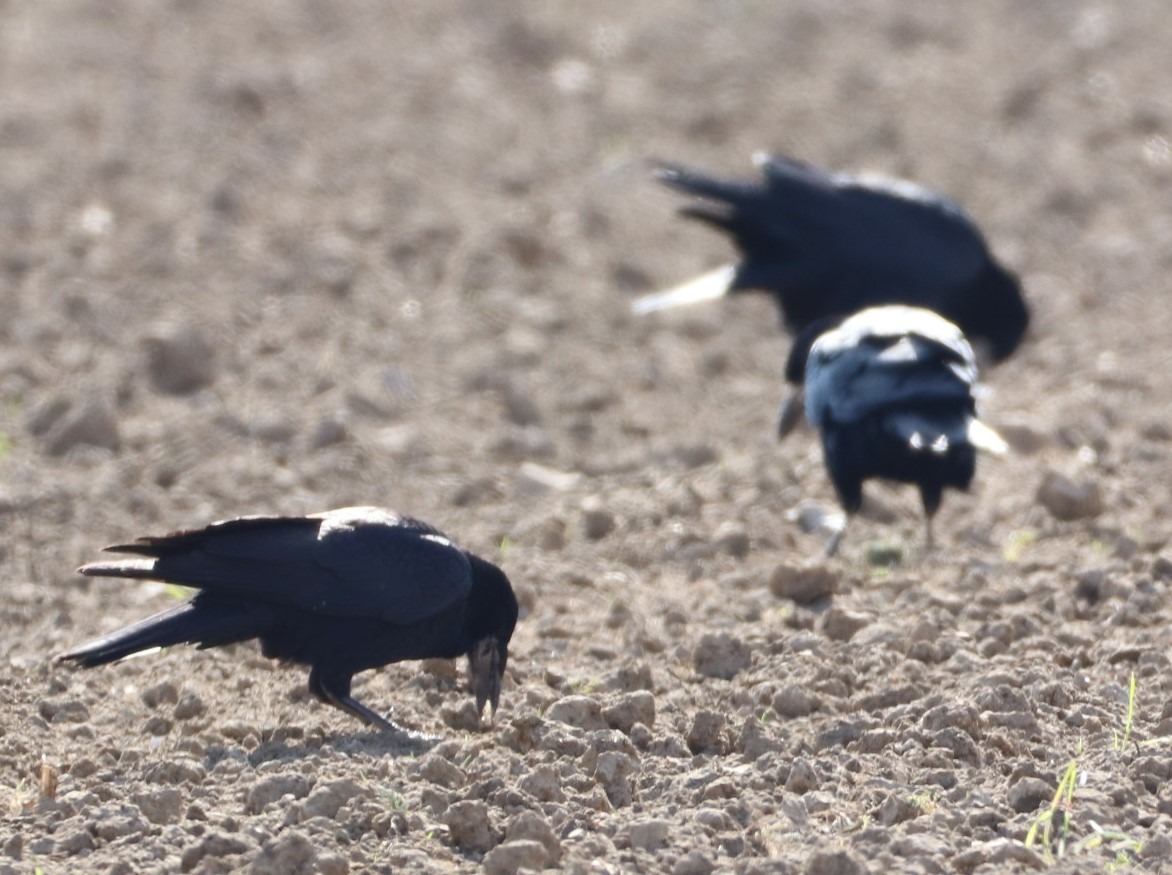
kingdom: Animalia
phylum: Chordata
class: Aves
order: Passeriformes
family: Corvidae
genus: Corvus
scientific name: Corvus frugilegus
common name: Råge
